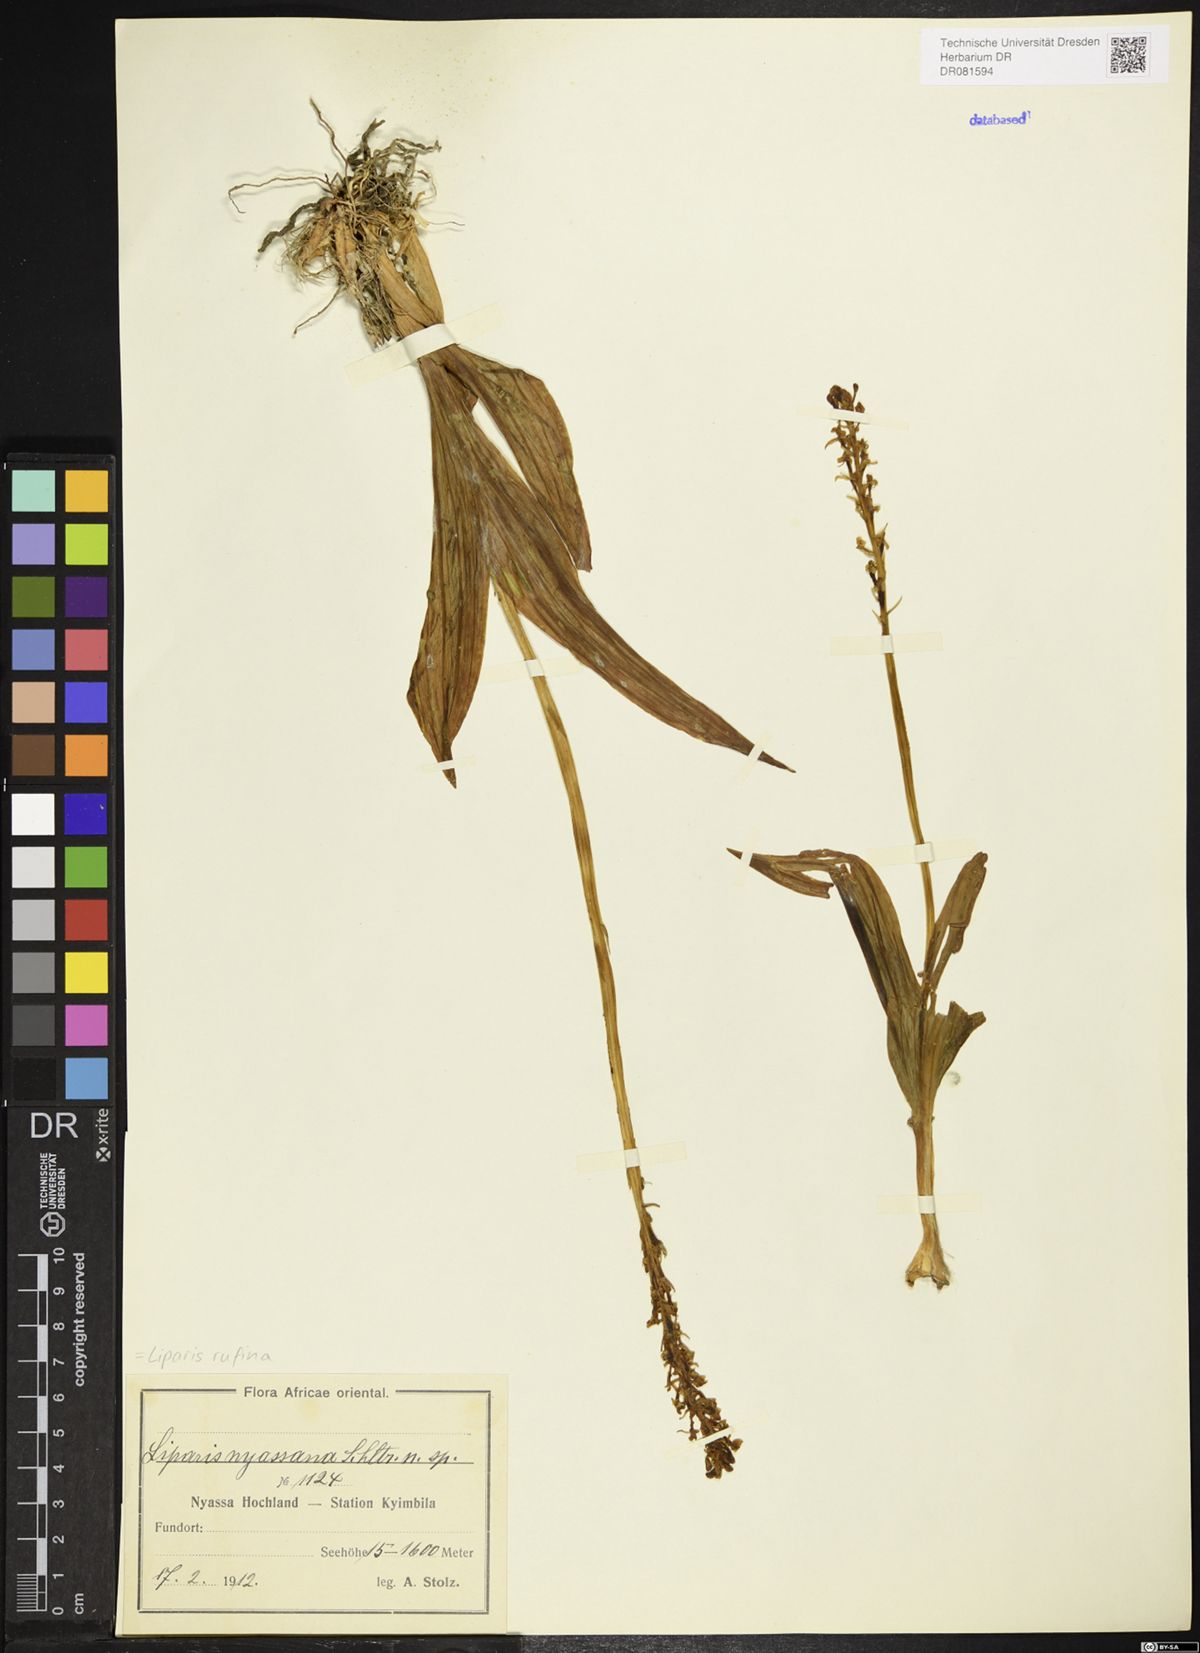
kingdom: Plantae
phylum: Tracheophyta
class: Liliopsida
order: Asparagales
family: Orchidaceae
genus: Liparis
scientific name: Liparis
